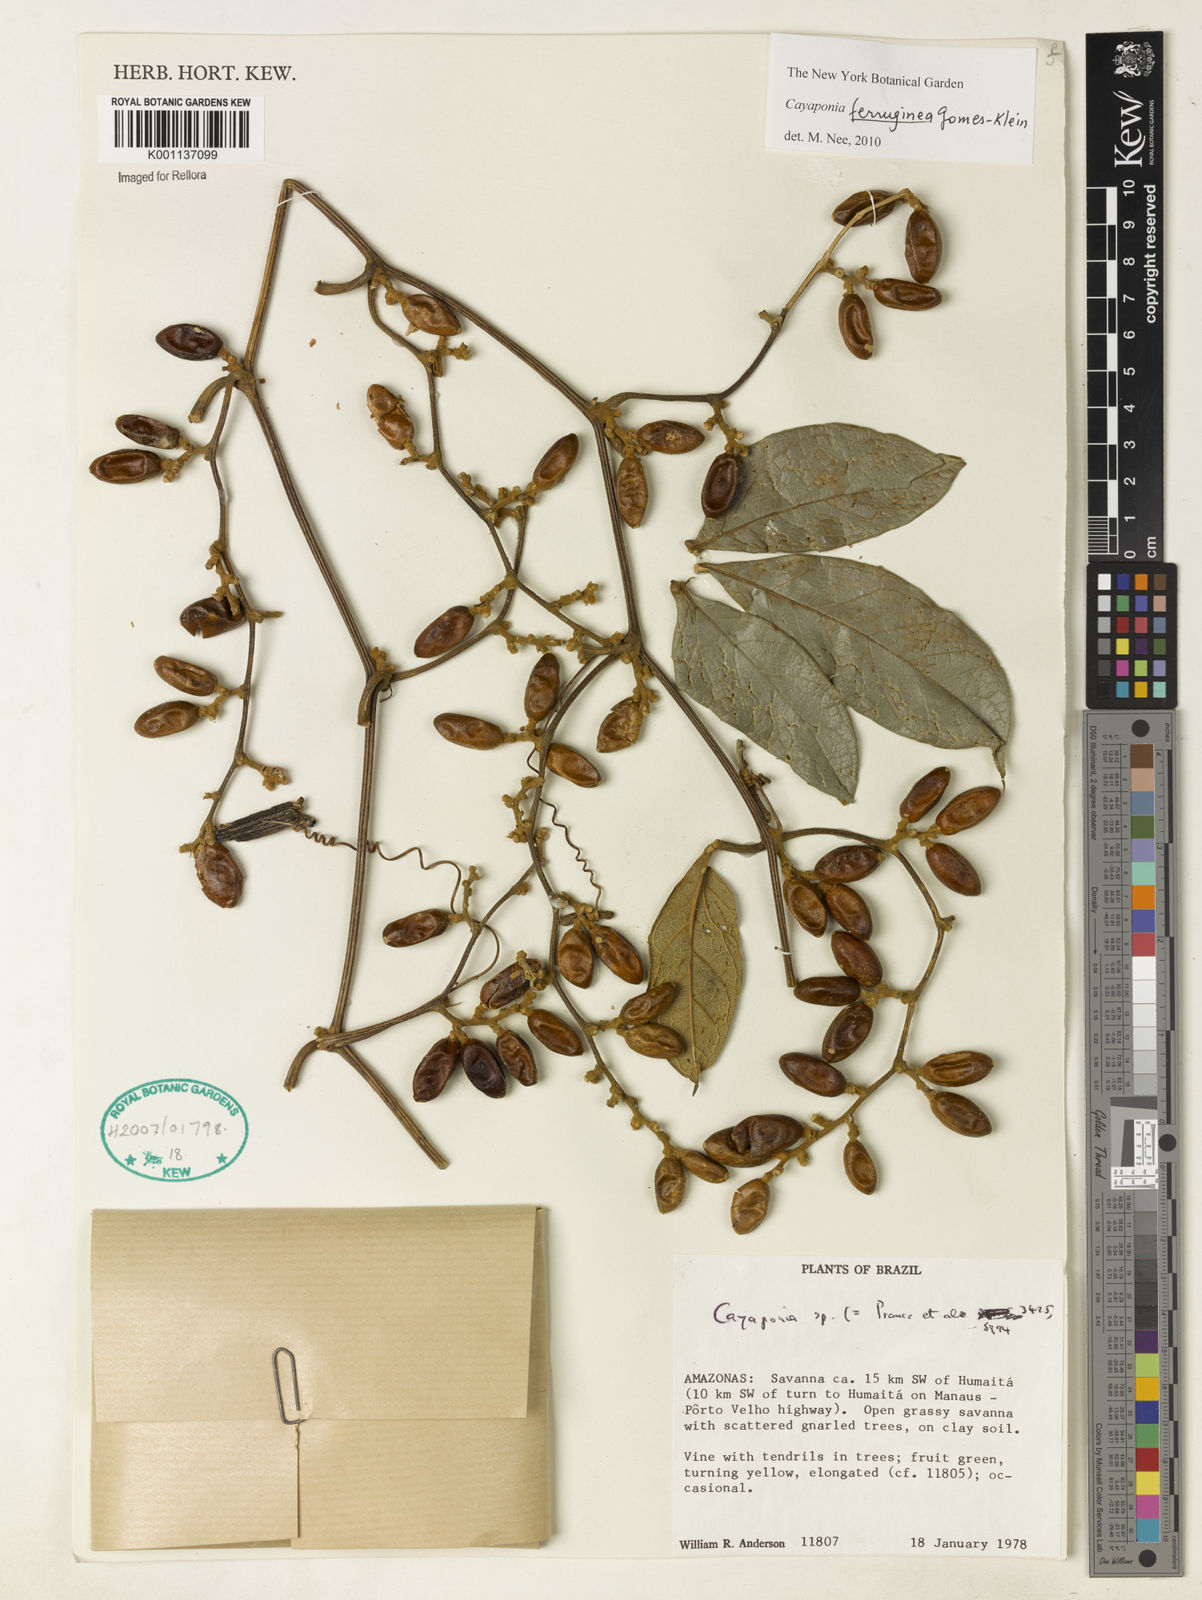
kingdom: Plantae
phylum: Tracheophyta
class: Magnoliopsida
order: Cucurbitales
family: Cucurbitaceae
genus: Cayaponia
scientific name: Cayaponia ferruginea
